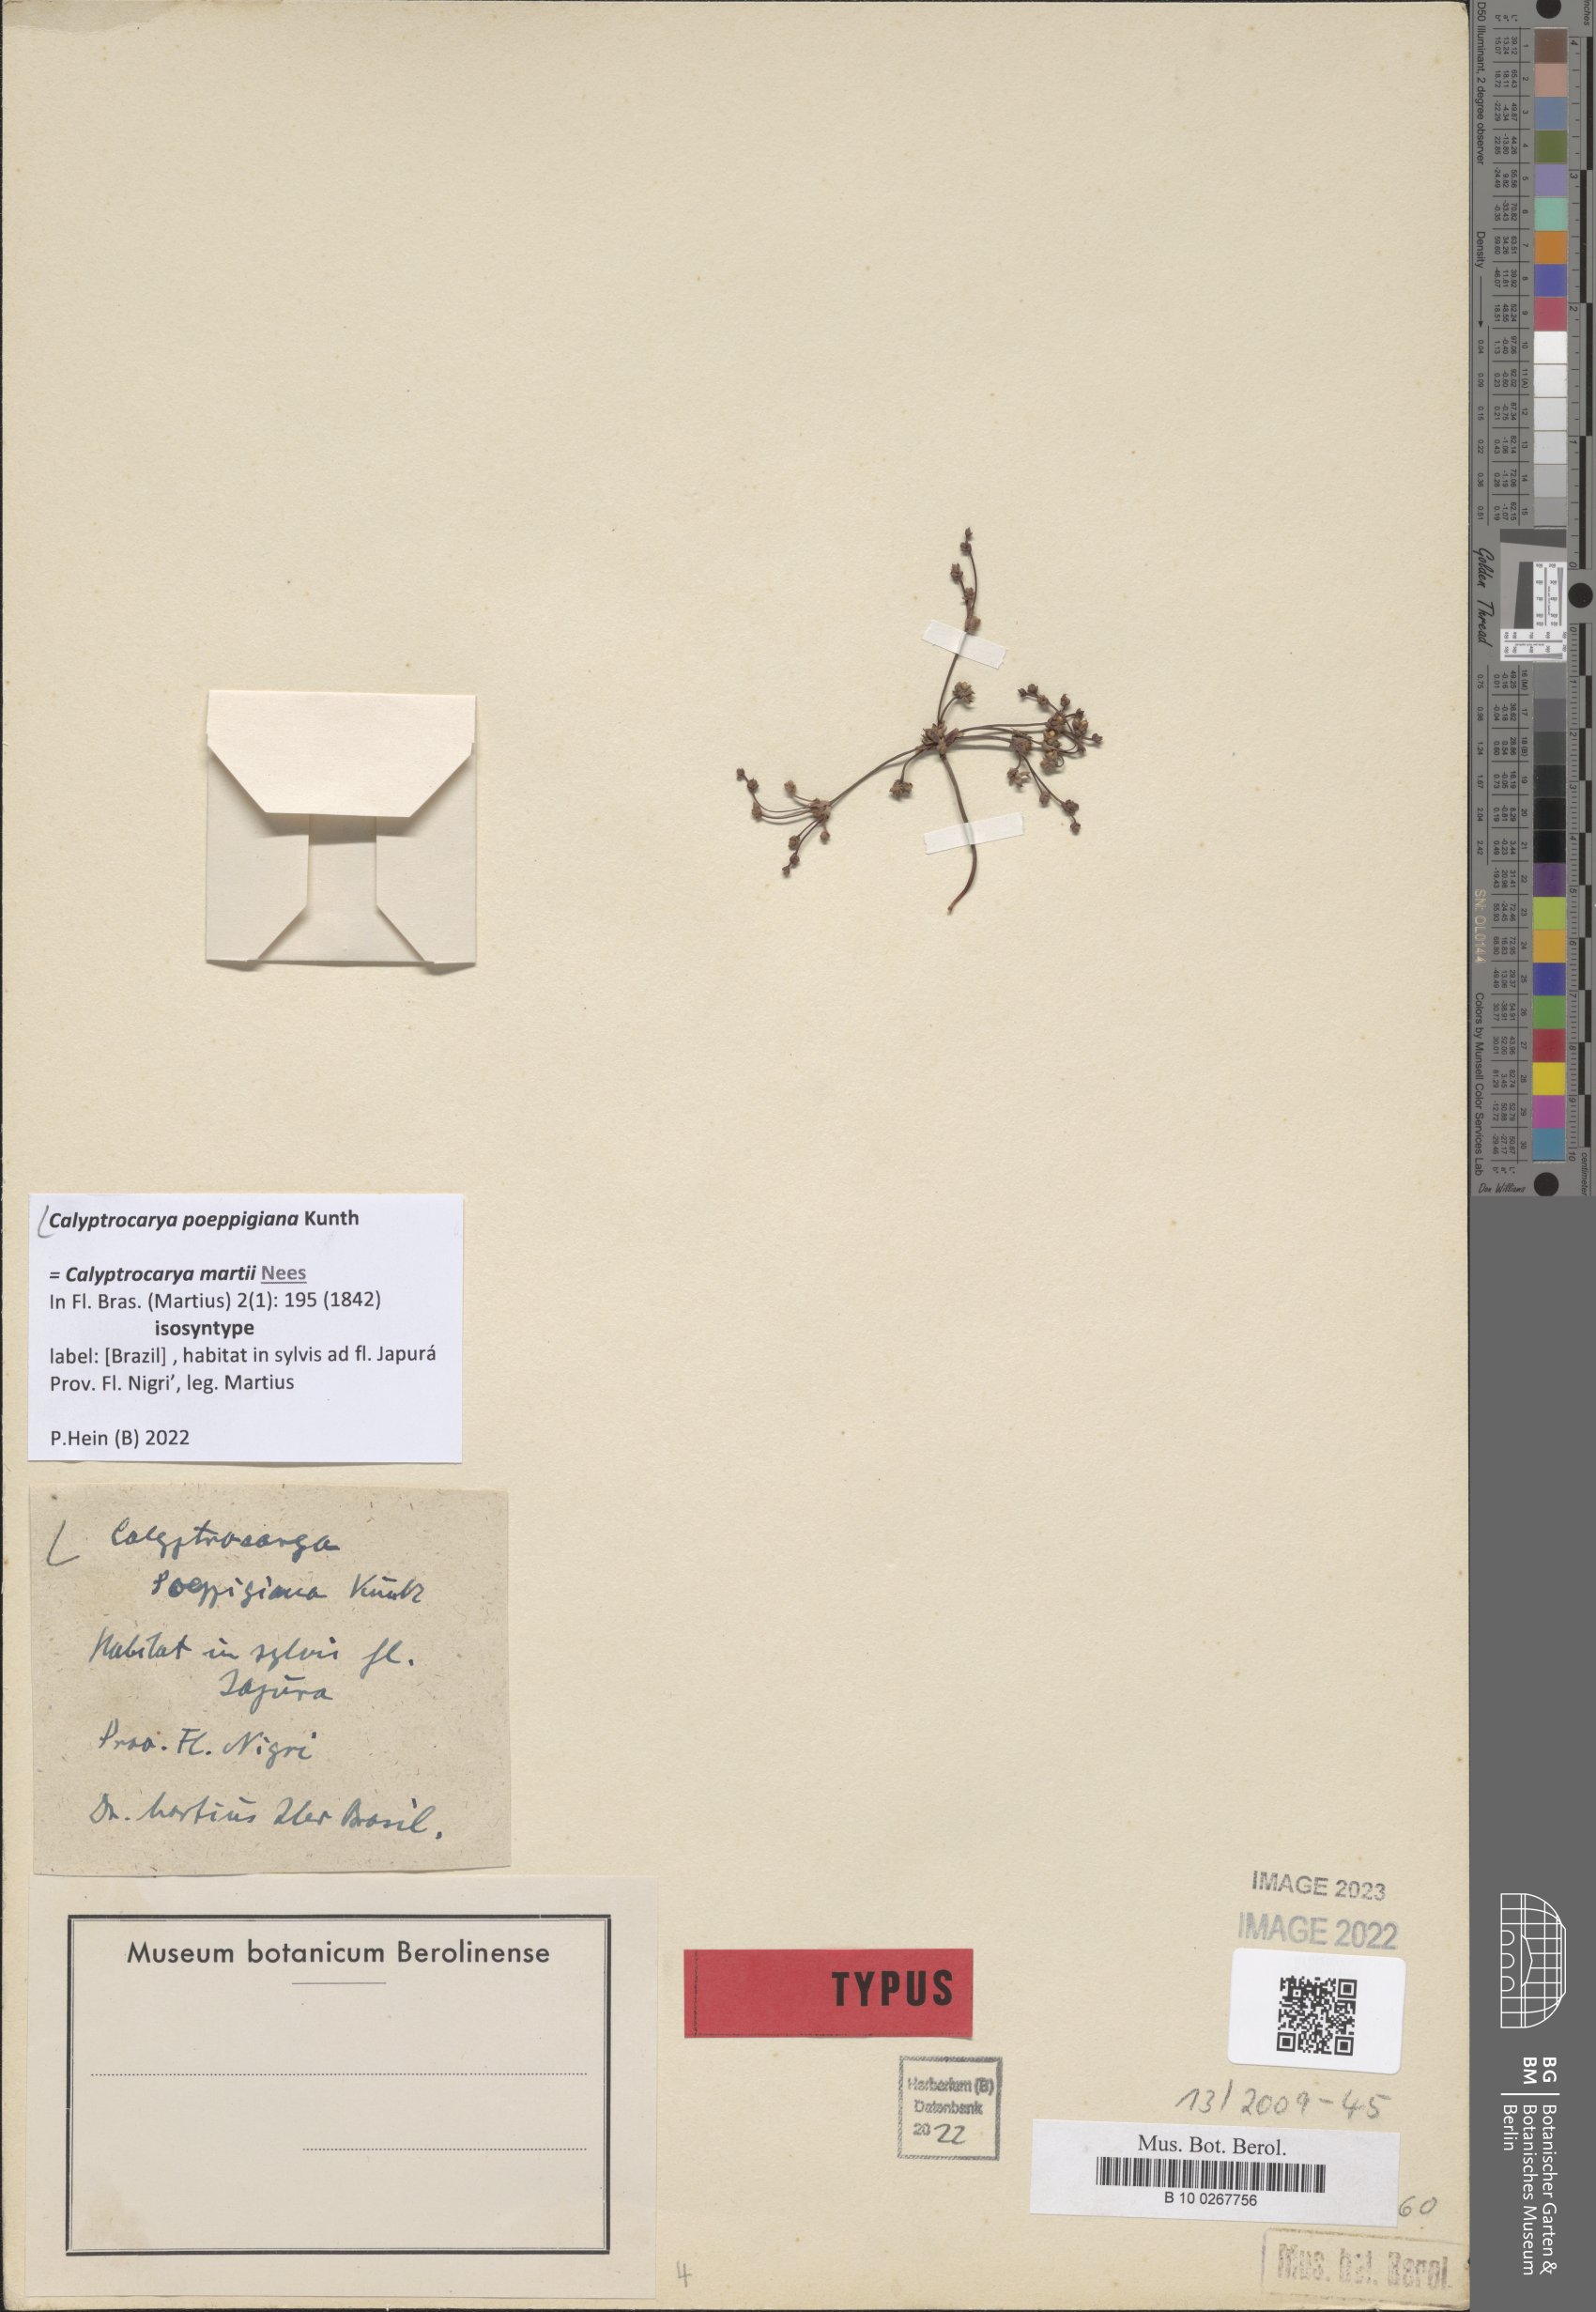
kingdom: Plantae
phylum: Tracheophyta
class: Liliopsida
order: Poales
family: Cyperaceae
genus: Calyptrocarya
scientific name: Calyptrocarya poeppigiana
